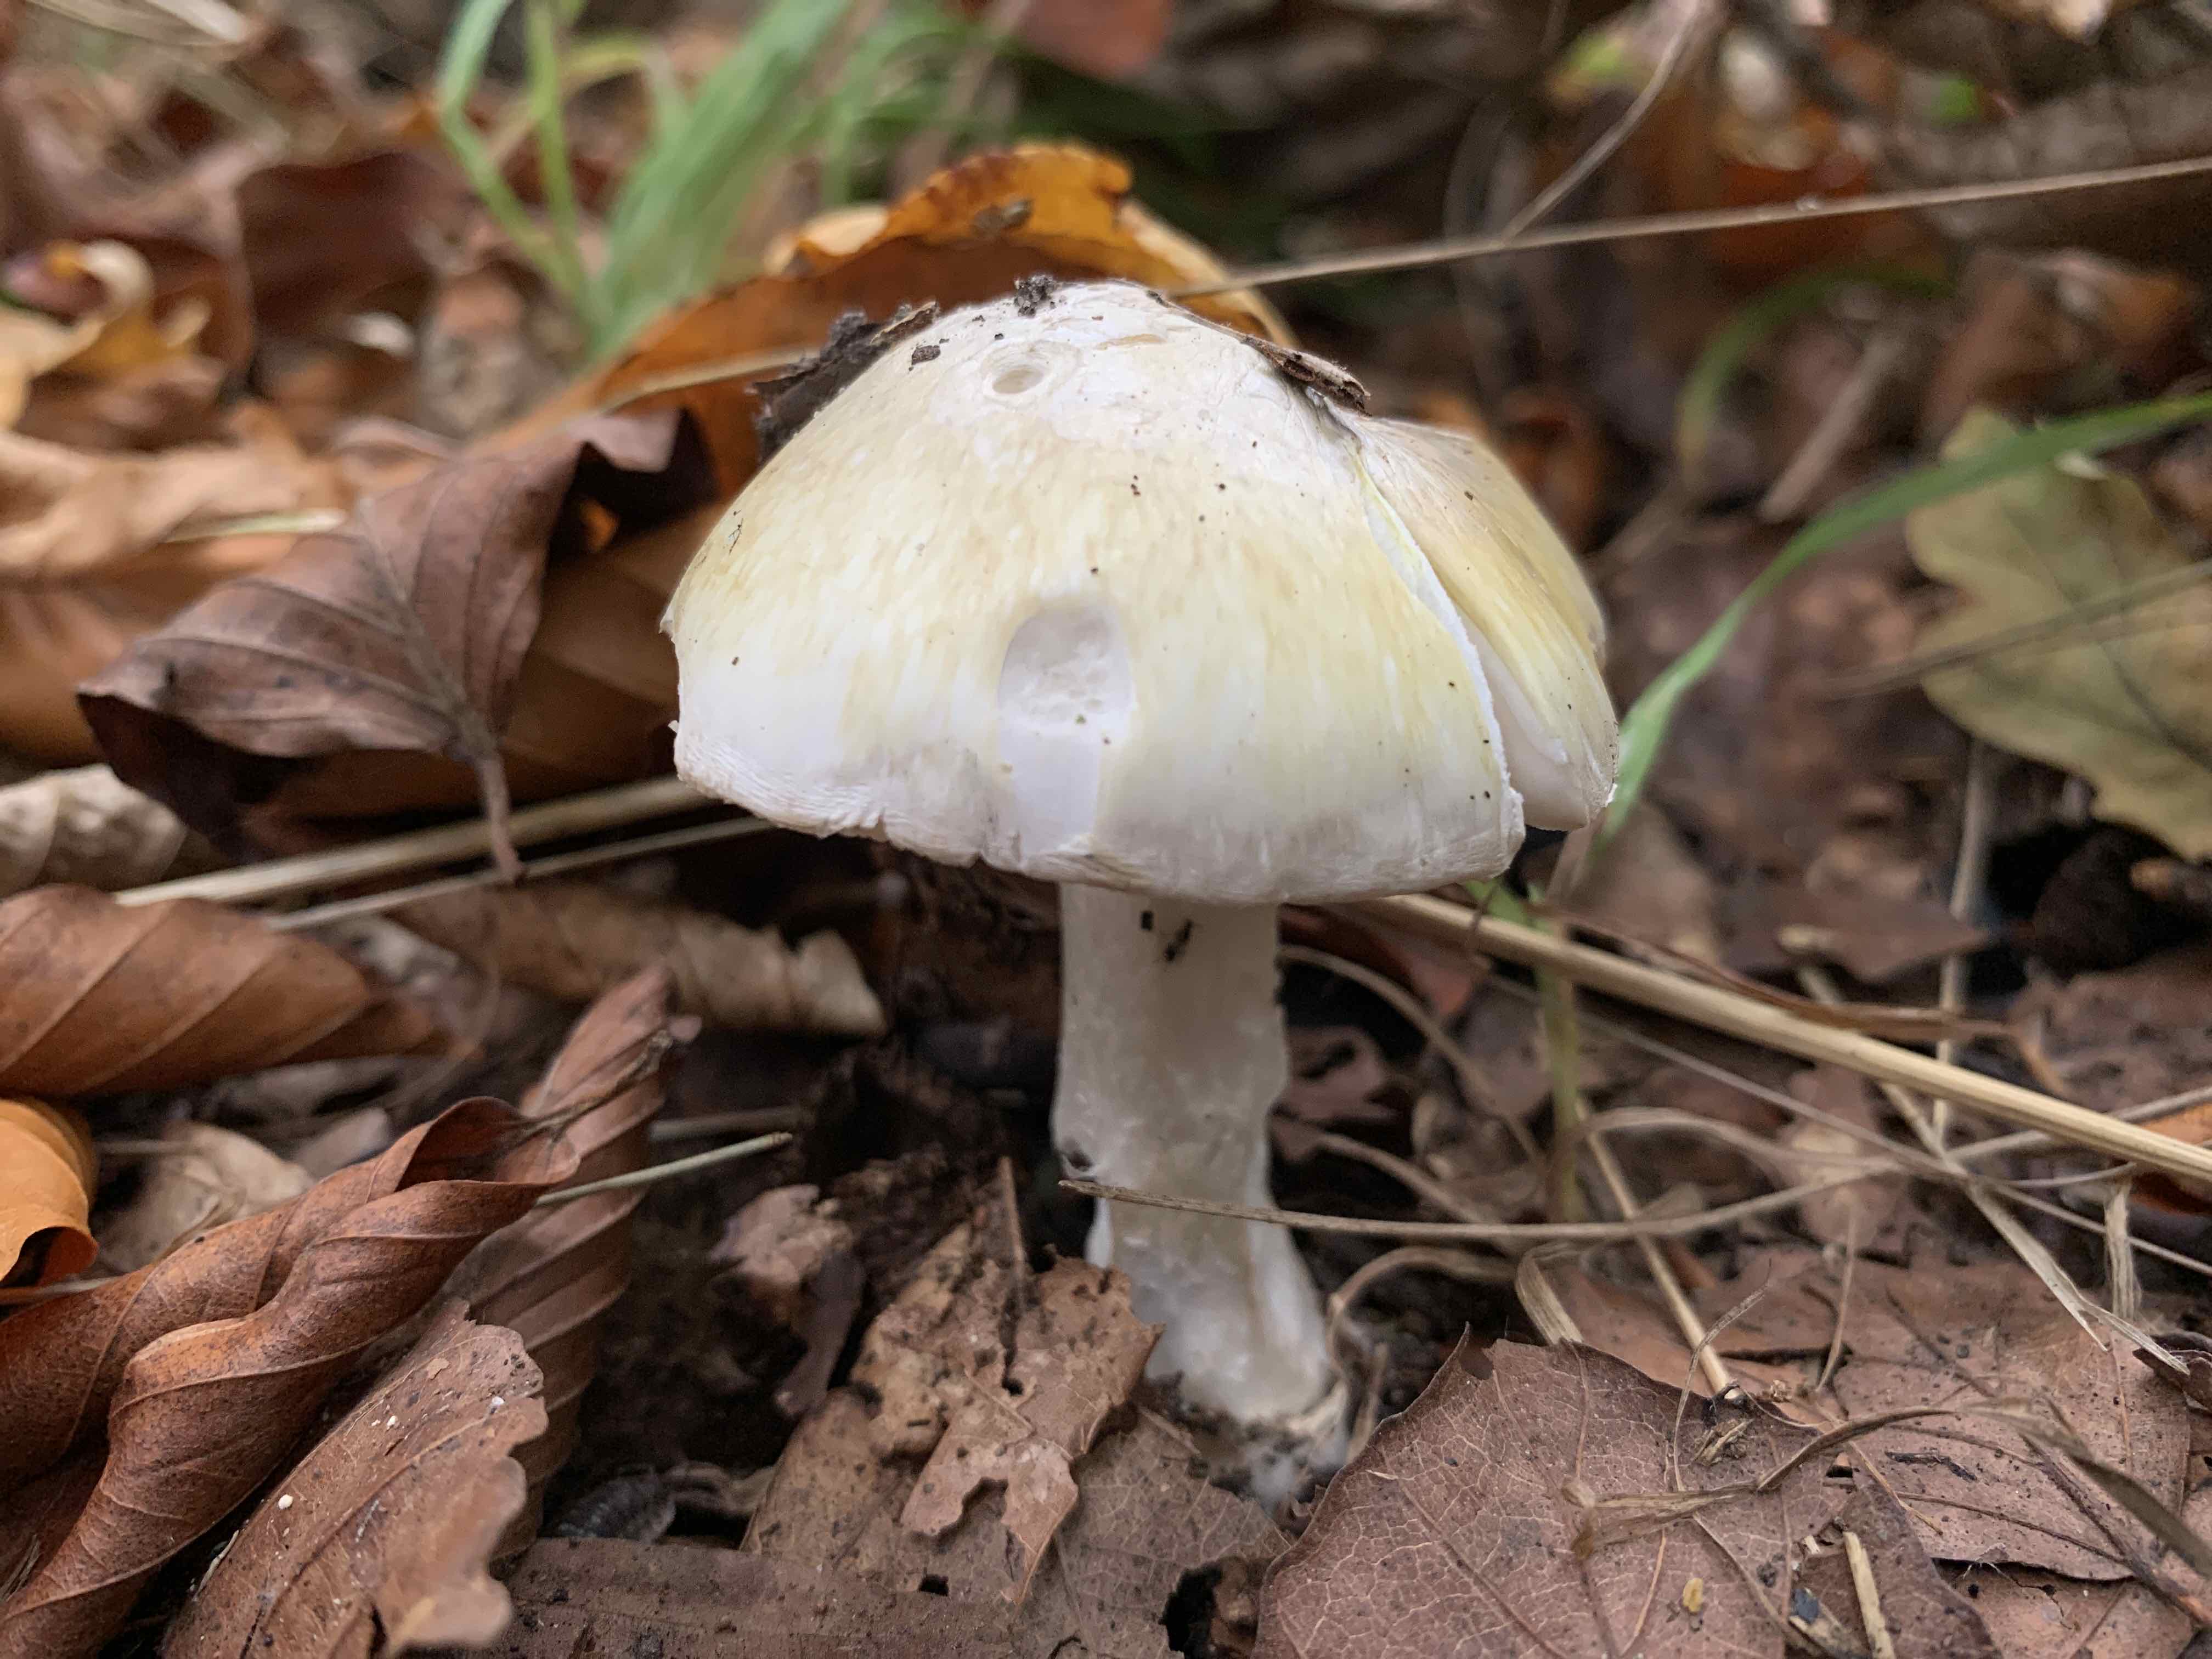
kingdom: Fungi
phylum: Basidiomycota
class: Agaricomycetes
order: Agaricales
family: Tricholomataceae
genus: Tricholoma
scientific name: Tricholoma sejunctum
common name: grøngul ridderhat
